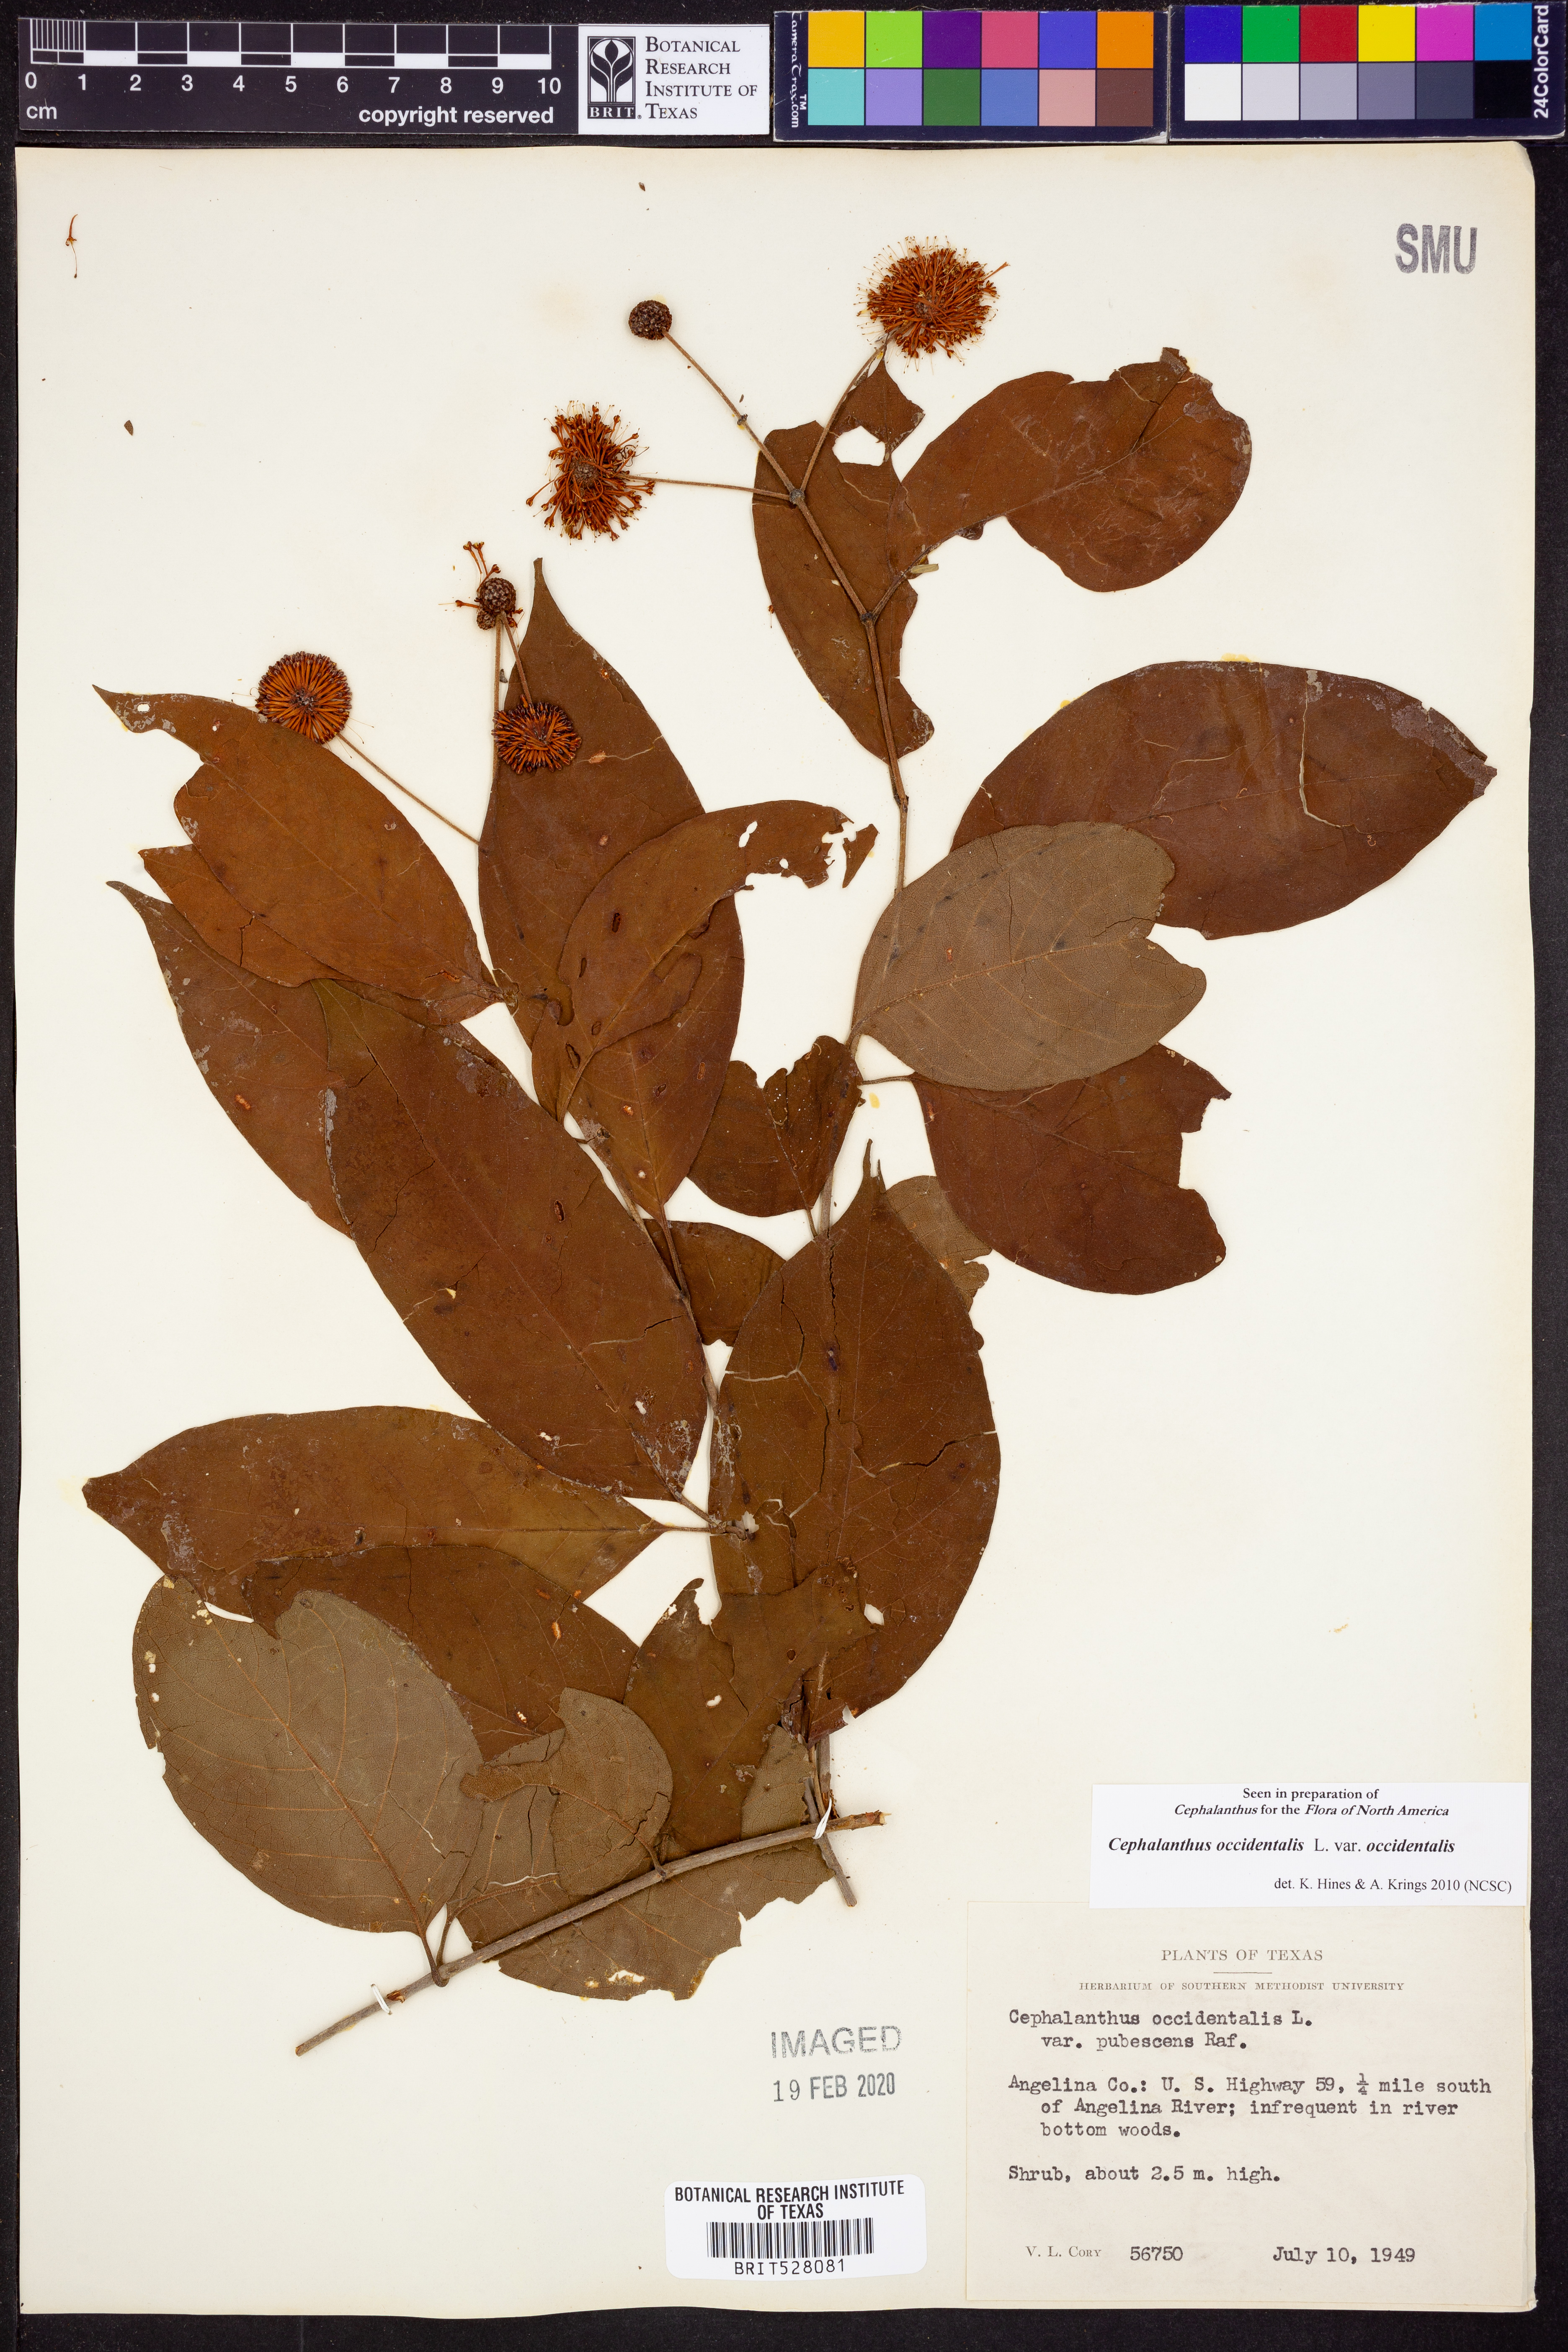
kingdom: Plantae
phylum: Tracheophyta
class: Magnoliopsida
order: Gentianales
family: Rubiaceae
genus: Cephalanthus
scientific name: Cephalanthus occidentalis
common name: Button-willow
